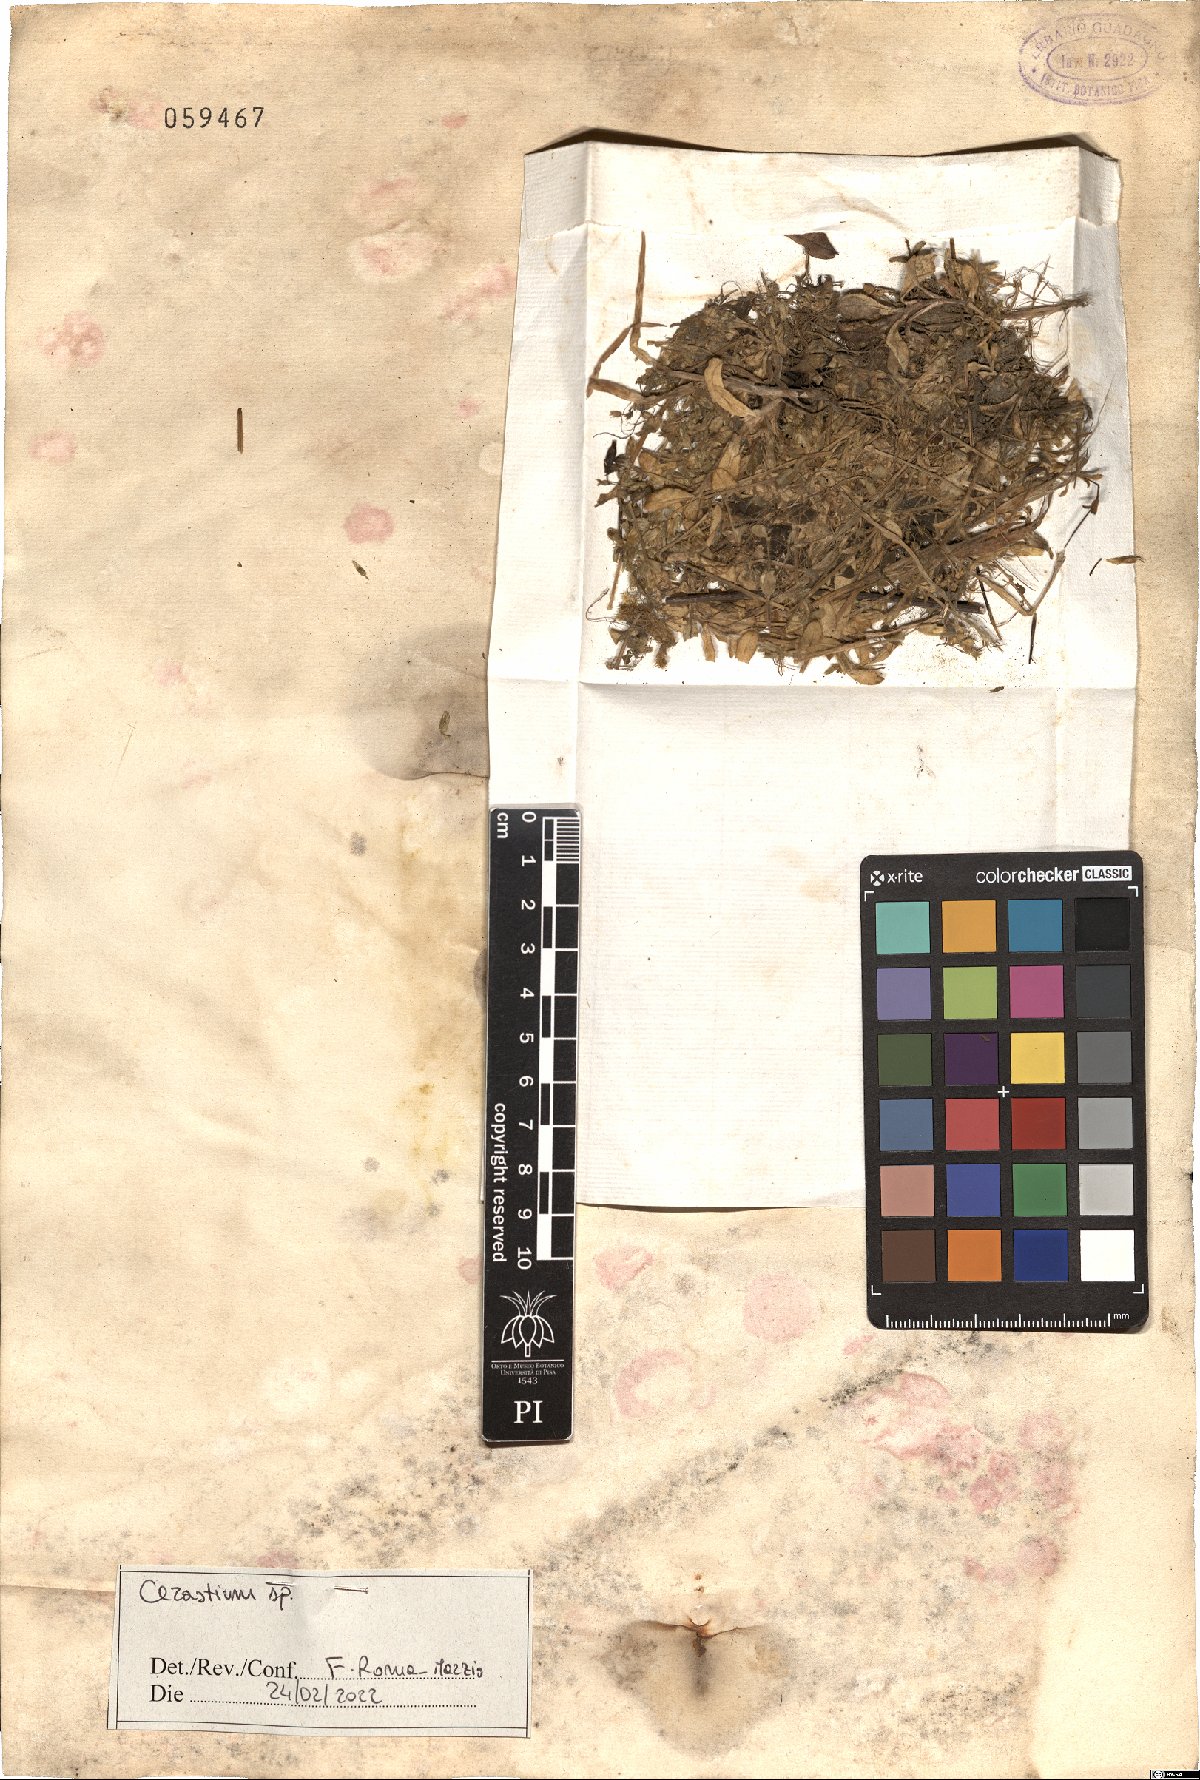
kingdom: Plantae
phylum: Tracheophyta
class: Magnoliopsida
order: Caryophyllales
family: Caryophyllaceae
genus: Cerastium
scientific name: Cerastium
